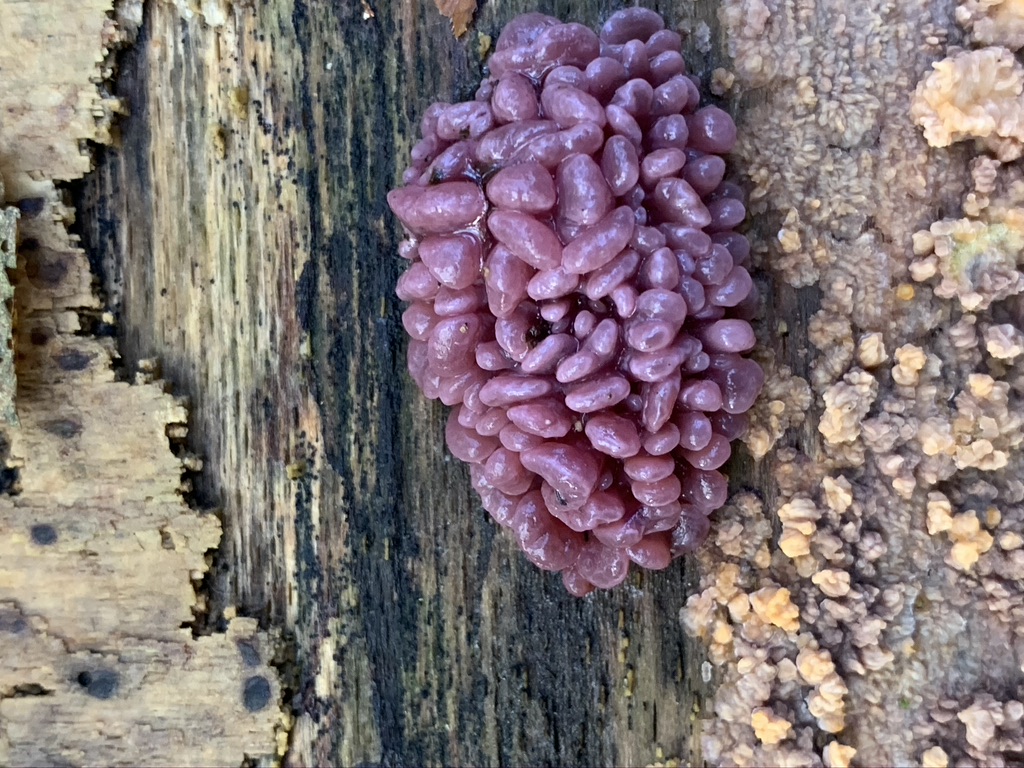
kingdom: Fungi
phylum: Ascomycota
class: Leotiomycetes
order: Helotiales
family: Gelatinodiscaceae
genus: Ascocoryne
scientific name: Ascocoryne sarcoides
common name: rødlilla sejskive
